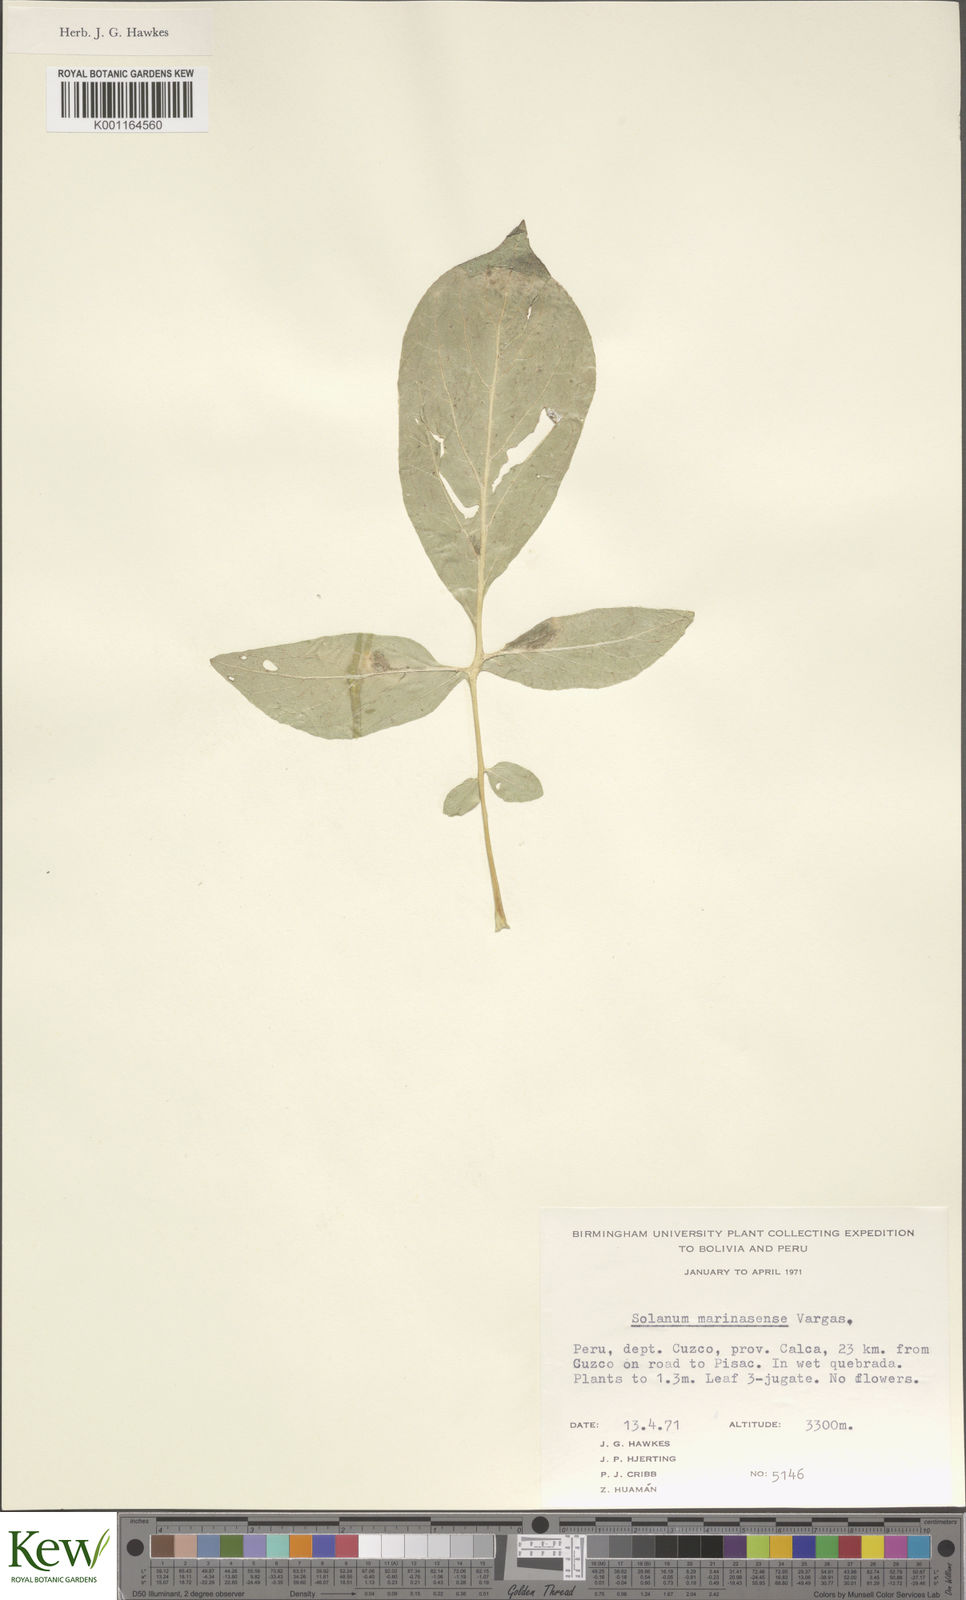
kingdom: Plantae
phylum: Tracheophyta
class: Magnoliopsida
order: Solanales
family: Solanaceae
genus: Solanum
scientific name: Solanum candolleanum
